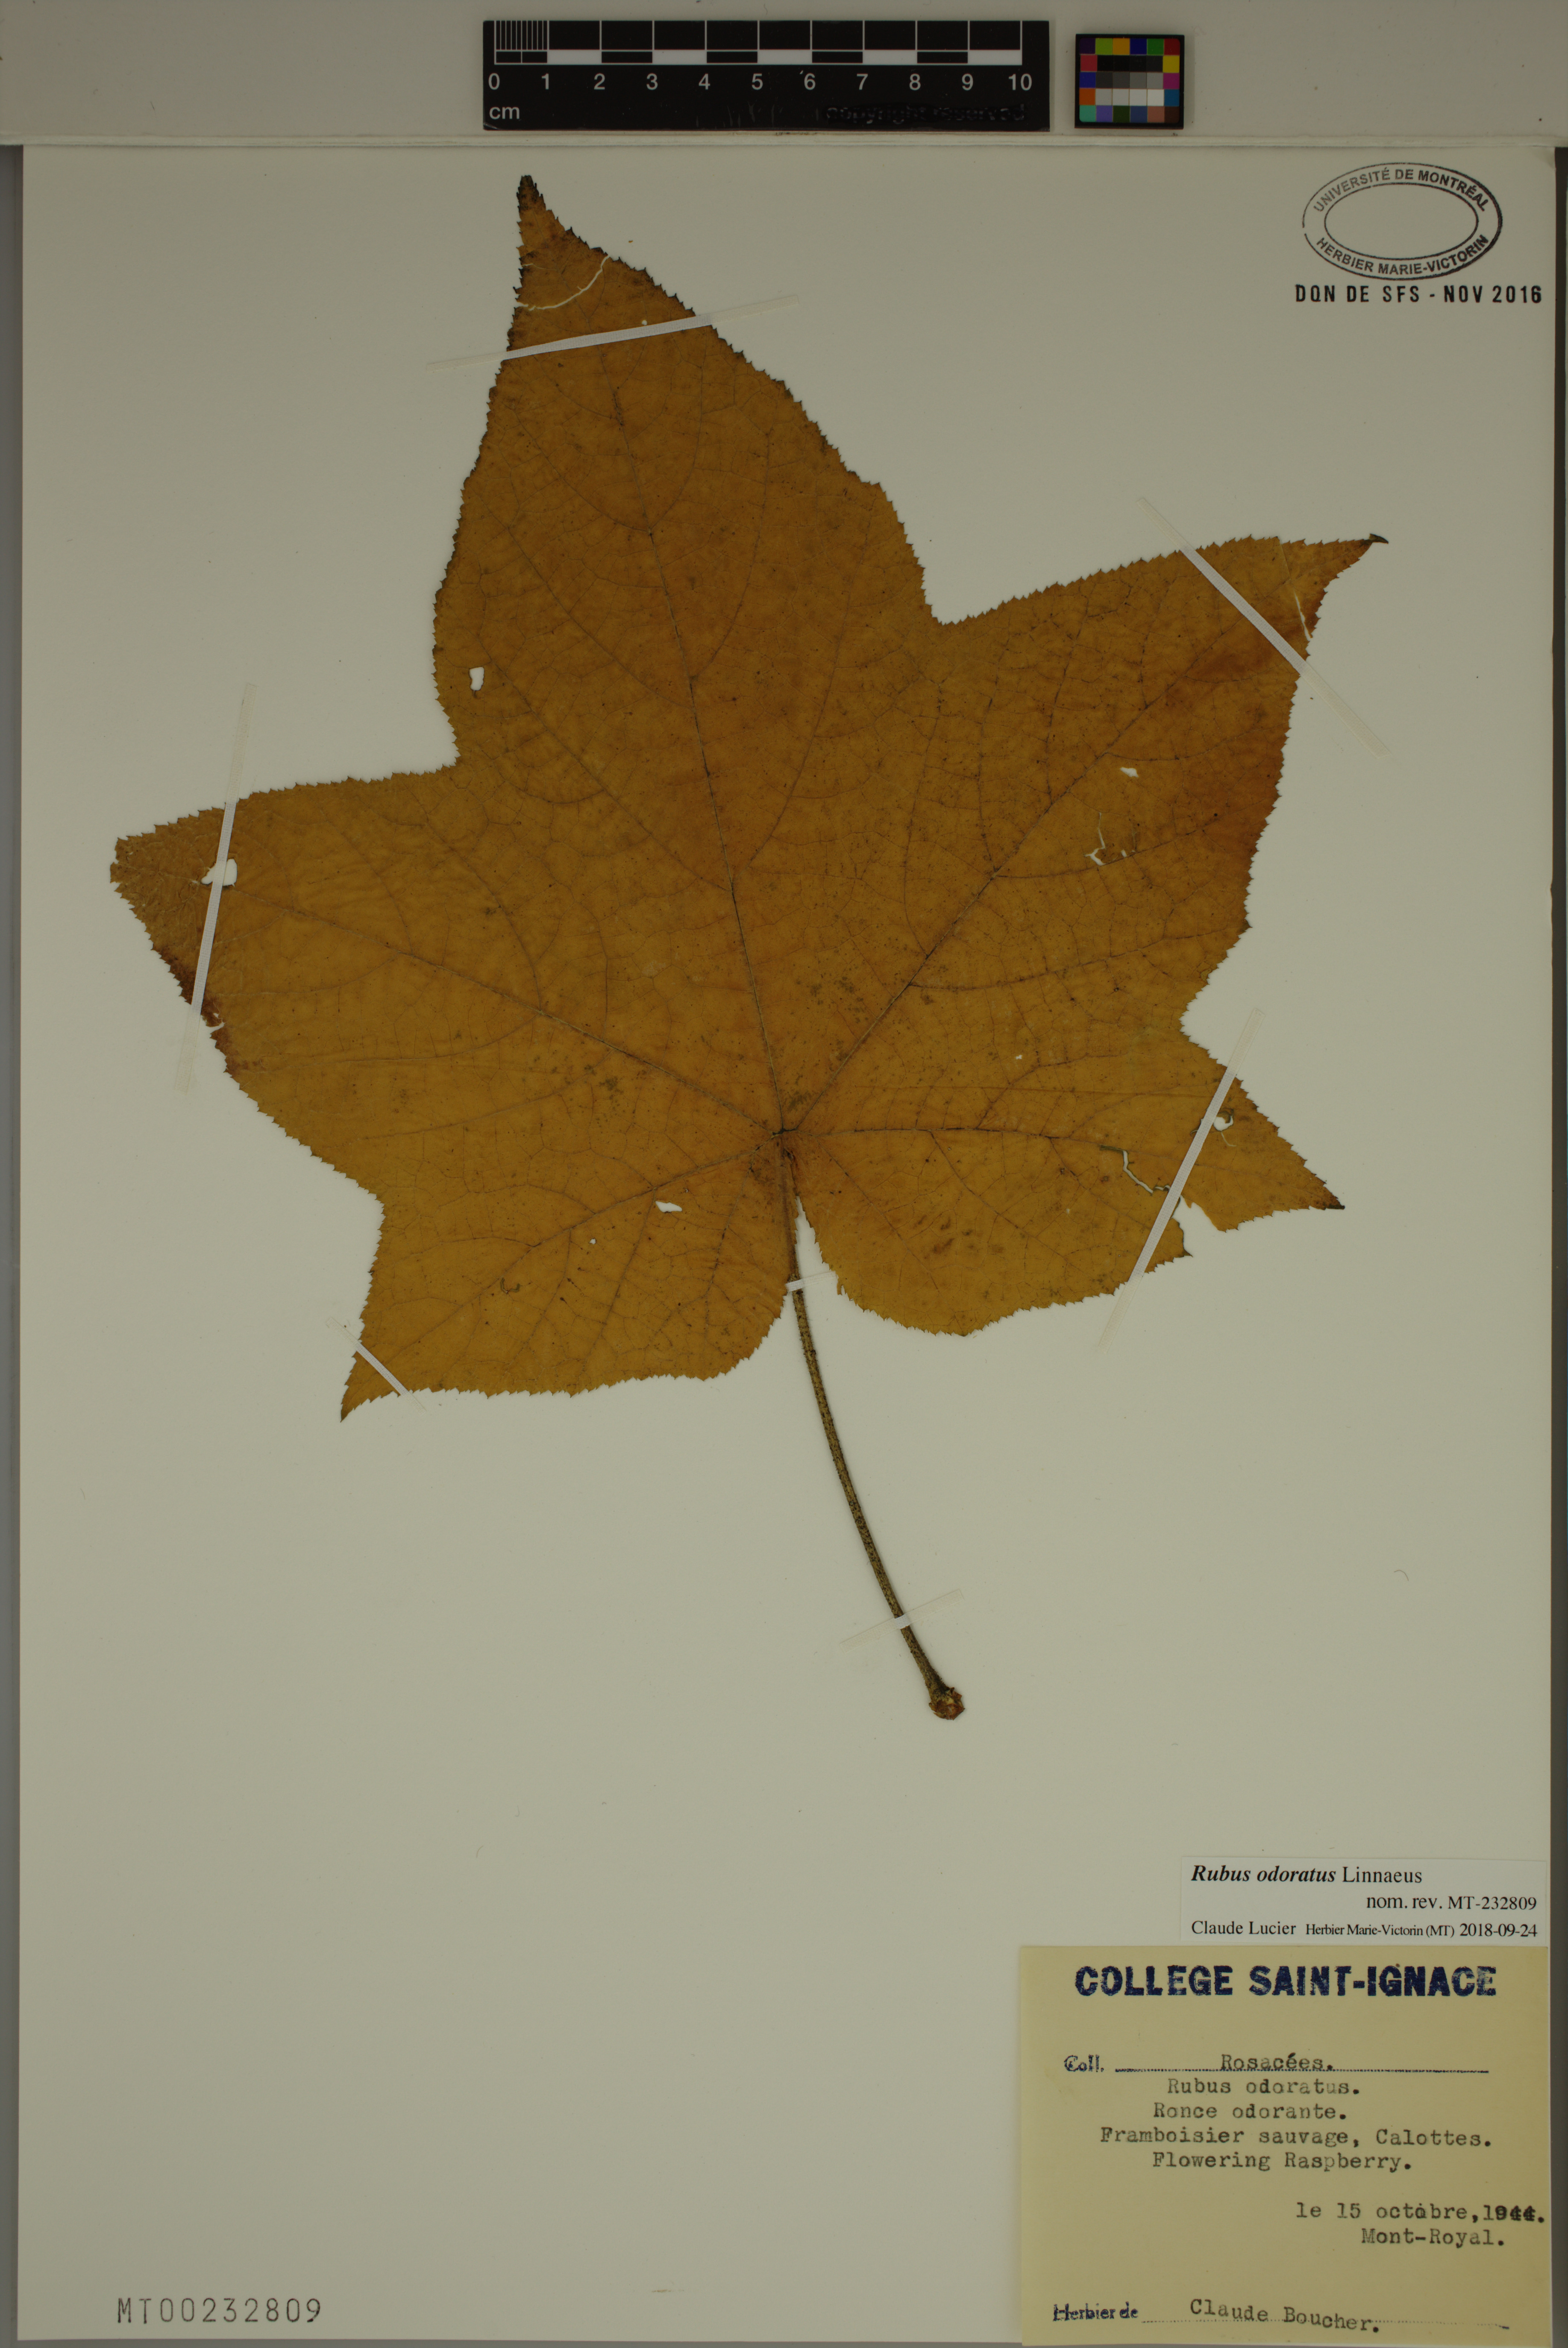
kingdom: Plantae
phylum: Tracheophyta
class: Magnoliopsida
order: Rosales
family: Rosaceae
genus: Rubus
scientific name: Rubus odoratus
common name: Purple-flowered raspberry
